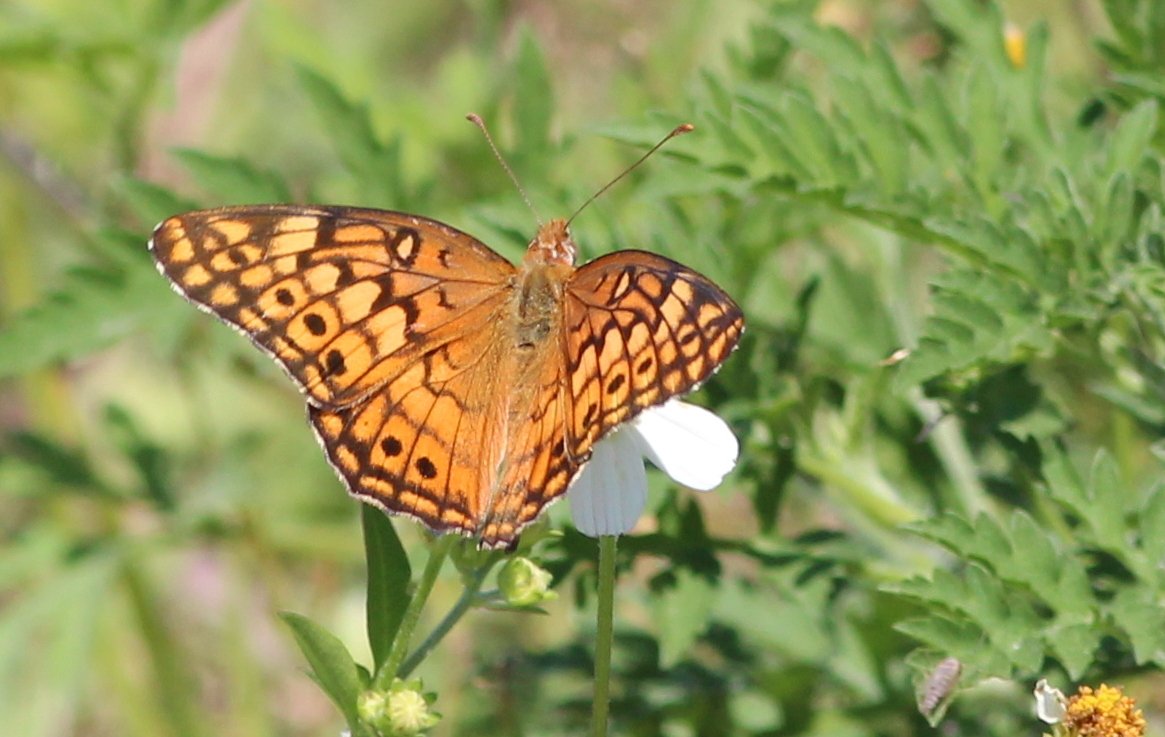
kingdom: Animalia
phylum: Arthropoda
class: Insecta
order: Lepidoptera
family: Nymphalidae
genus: Euptoieta
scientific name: Euptoieta claudia
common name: Variegated Fritillary
